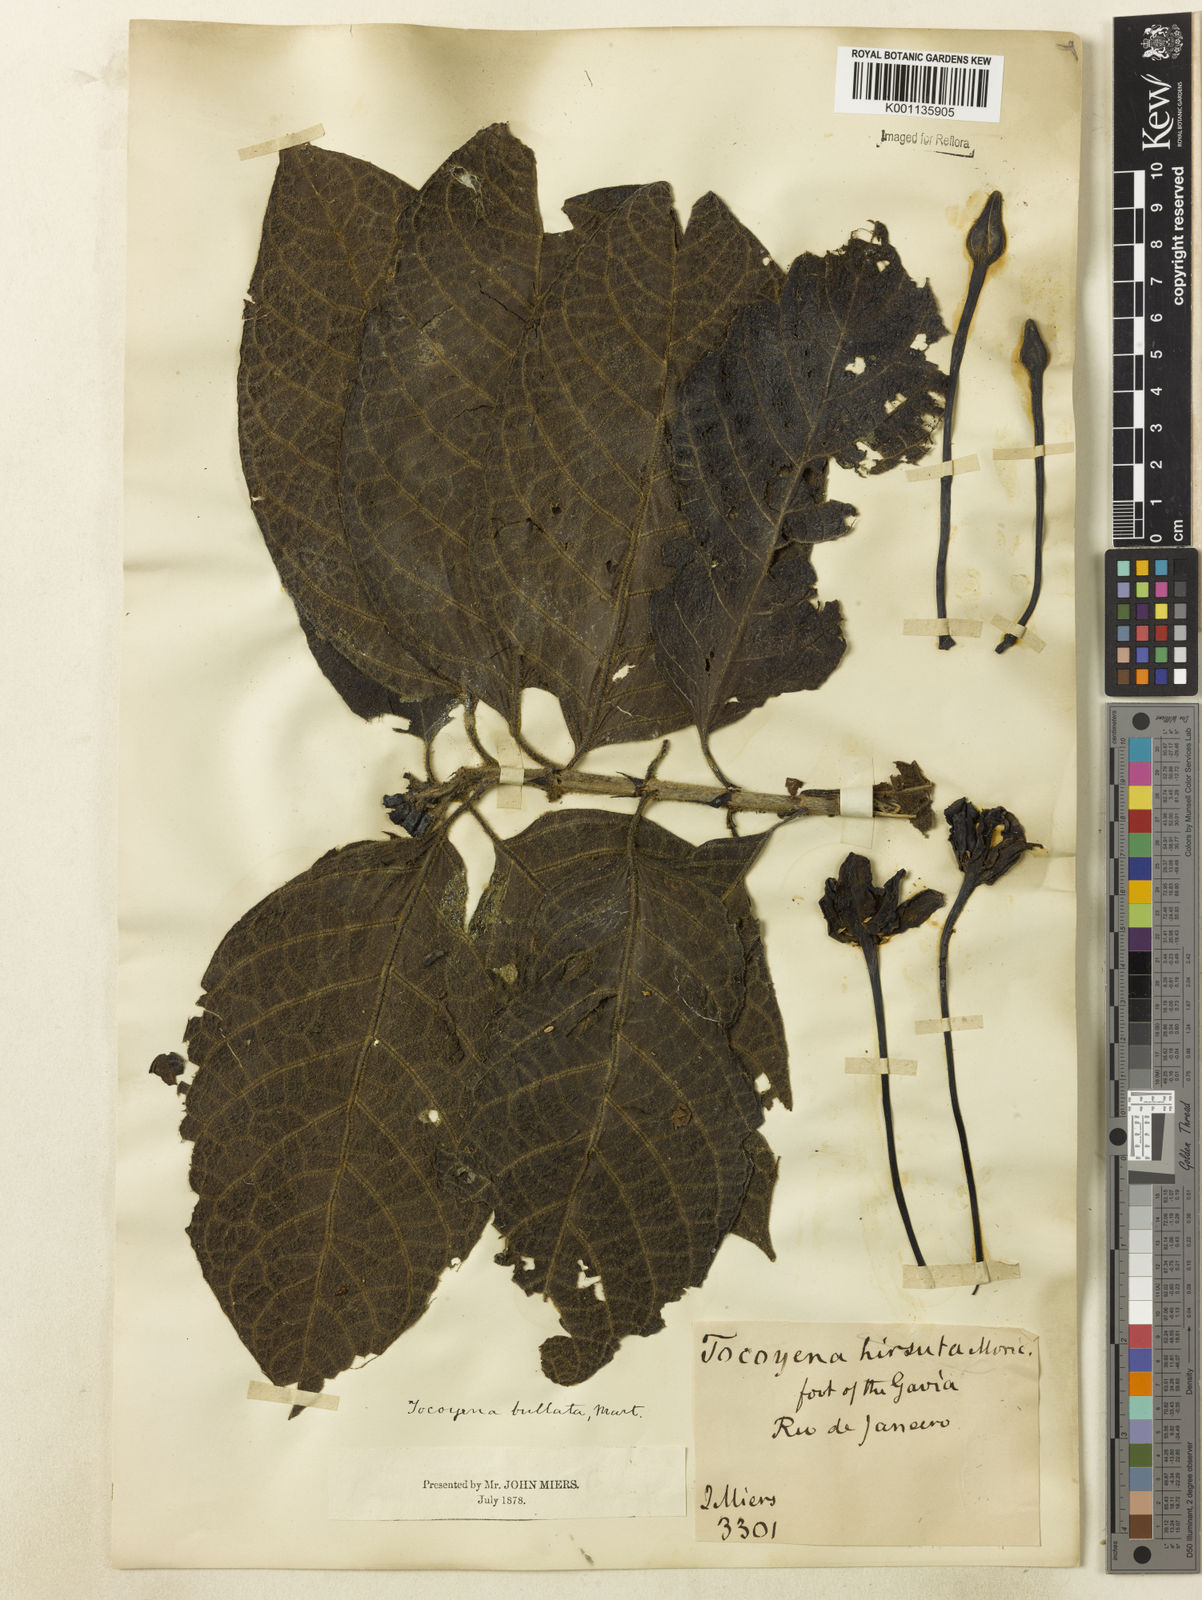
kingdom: Plantae
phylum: Tracheophyta
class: Magnoliopsida
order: Gentianales
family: Rubiaceae
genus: Tocoyena
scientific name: Tocoyena bullata
